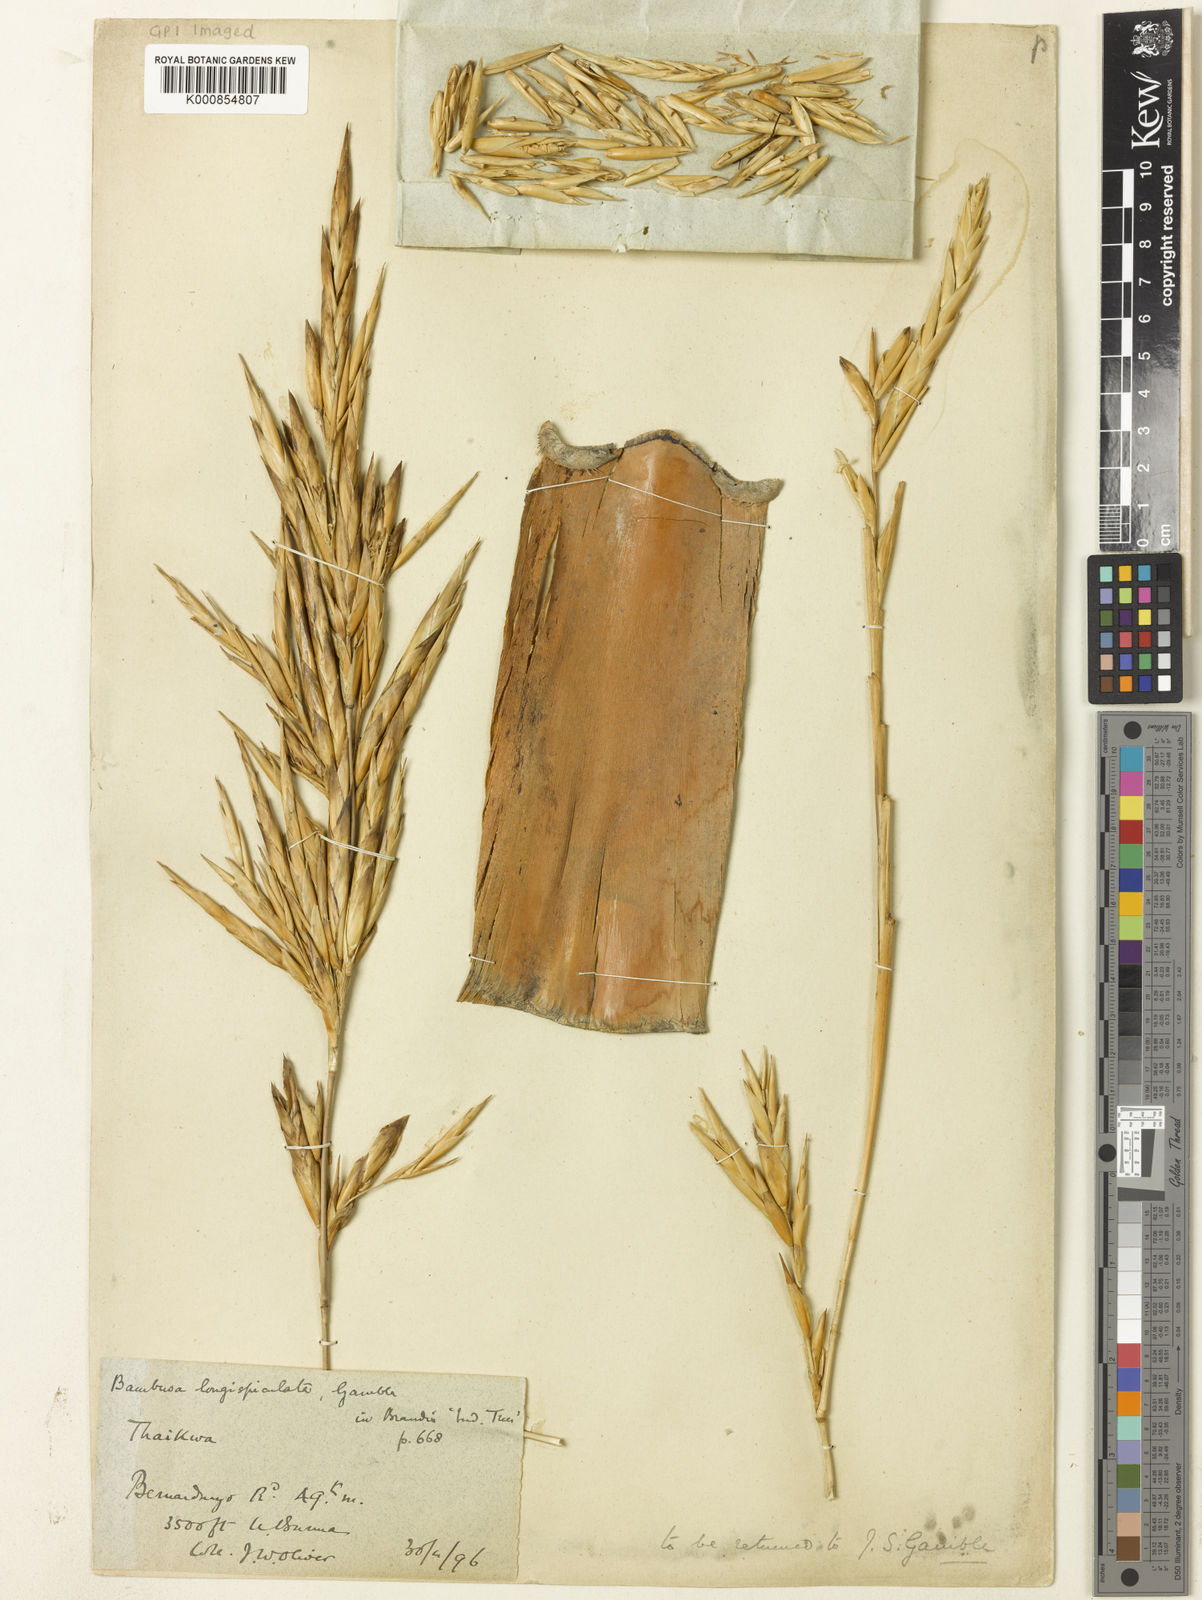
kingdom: Plantae
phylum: Tracheophyta
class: Liliopsida
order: Poales
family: Poaceae
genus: Bambusa
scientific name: Bambusa
